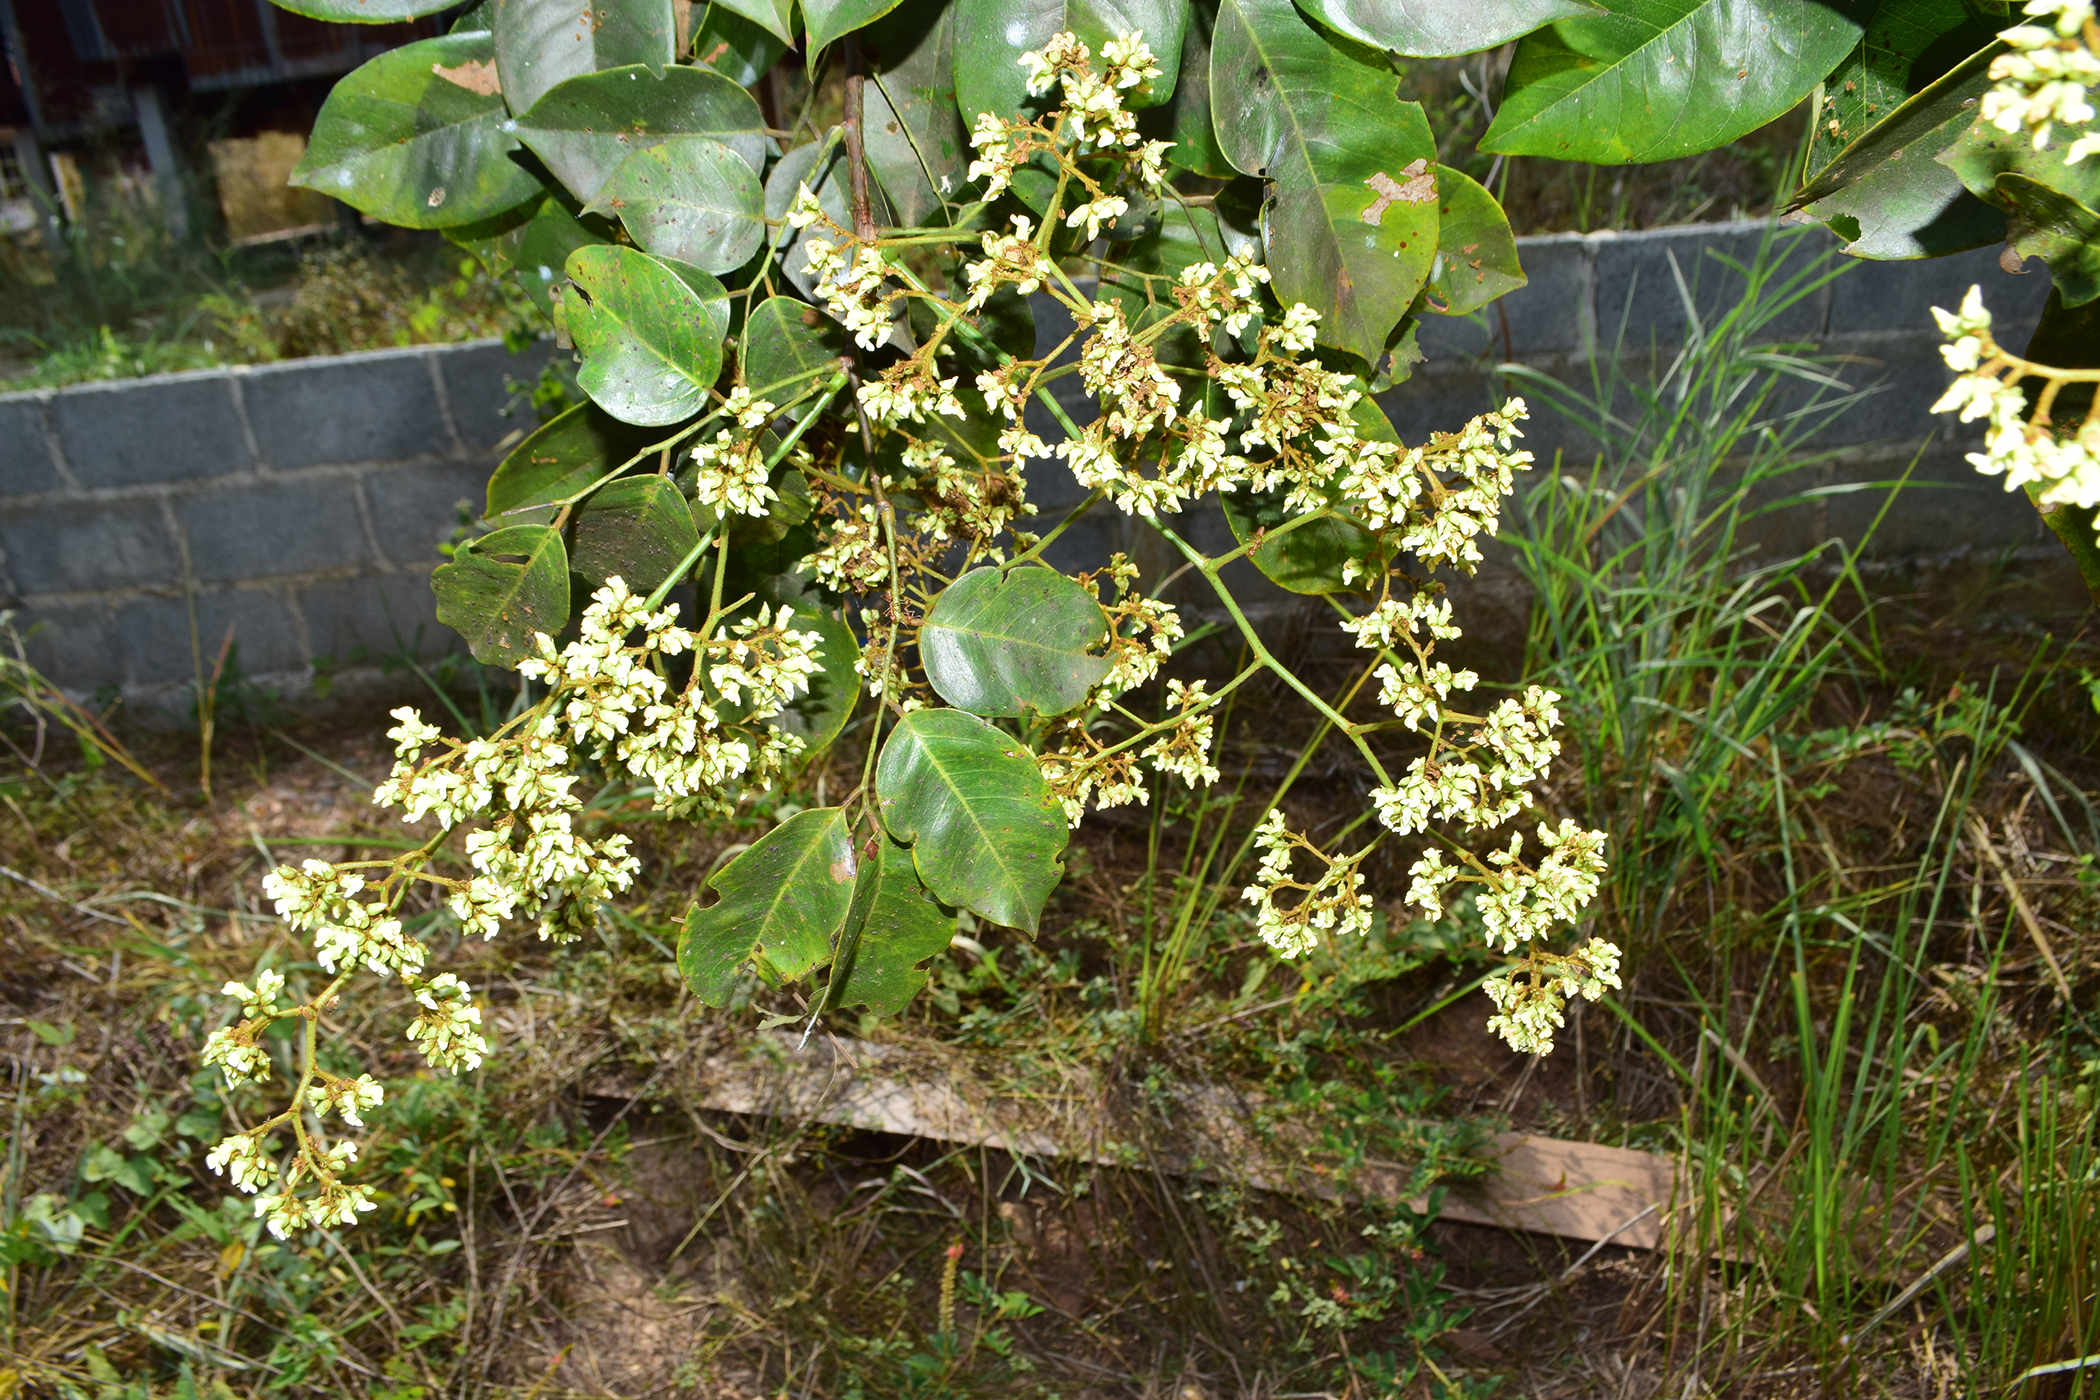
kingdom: Plantae
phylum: Tracheophyta
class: Magnoliopsida
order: Fabales
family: Fabaceae
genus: Dalbergia
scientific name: Dalbergia glomeriflora
